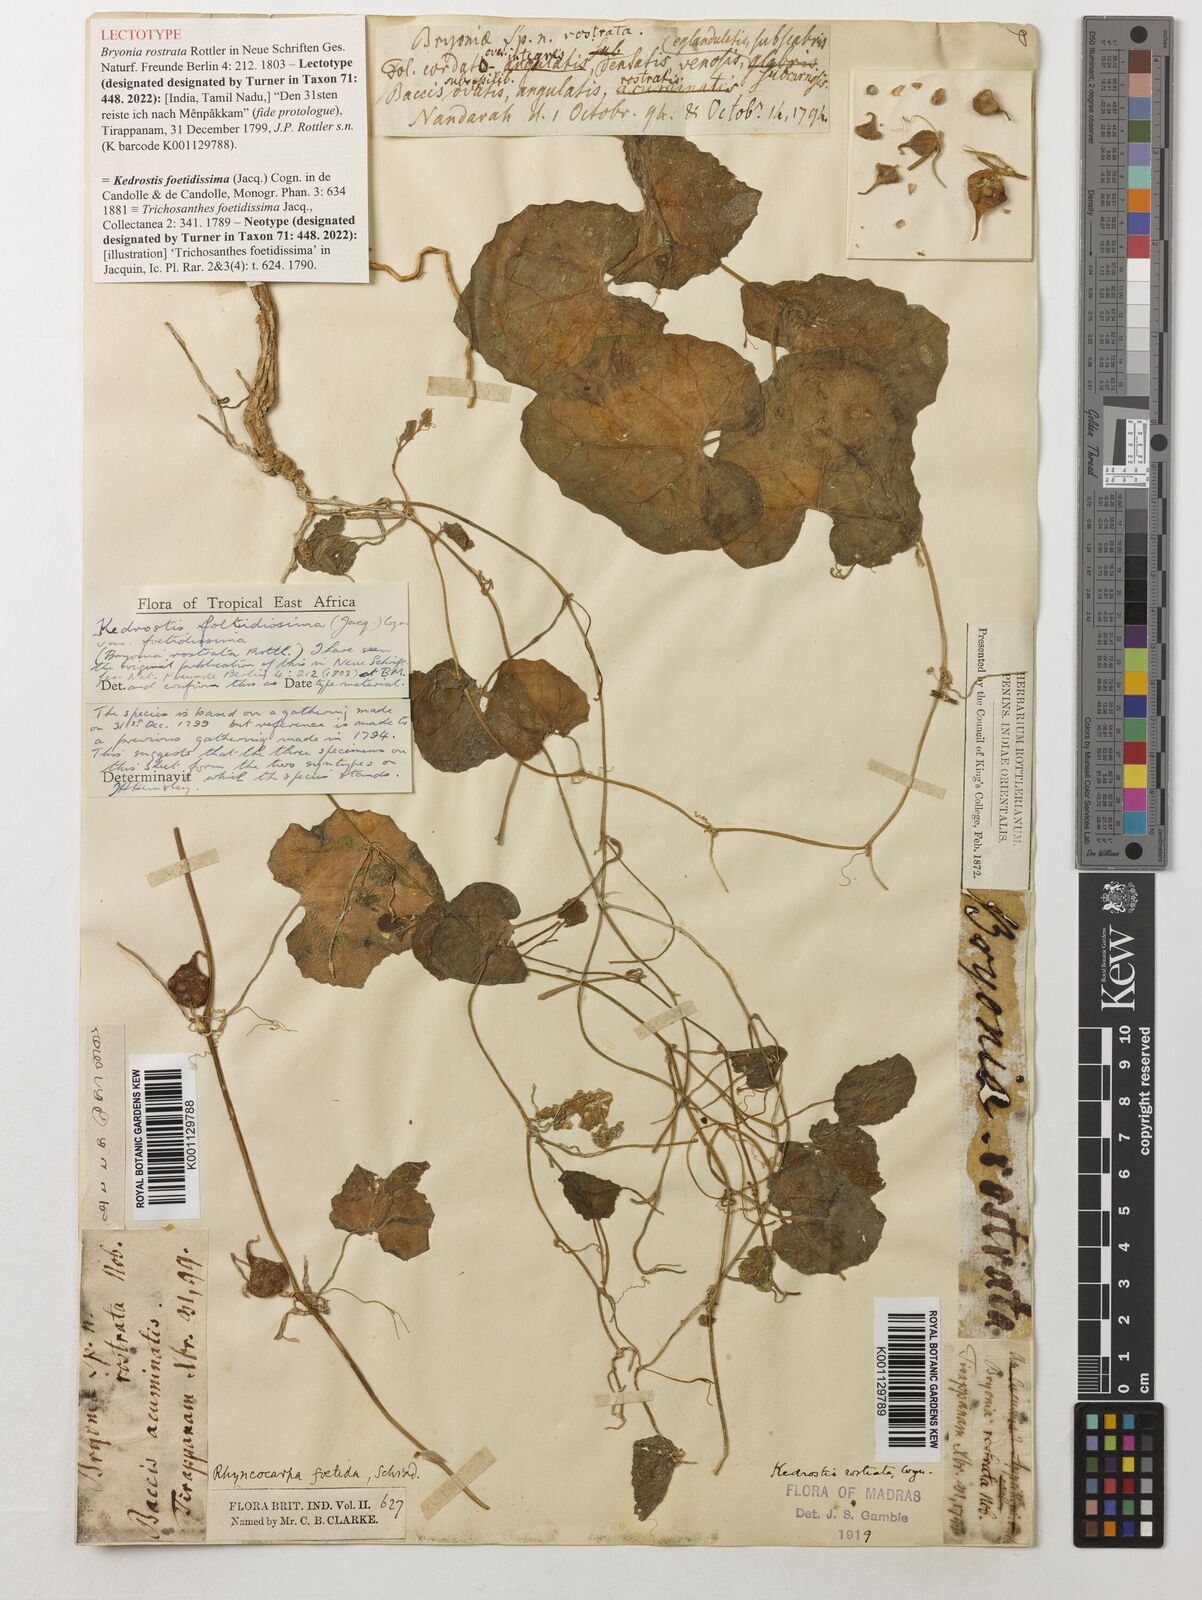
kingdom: Plantae
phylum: Tracheophyta
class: Magnoliopsida
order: Cucurbitales
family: Cucurbitaceae
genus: Kedrostis
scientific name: Kedrostis foetidissima
